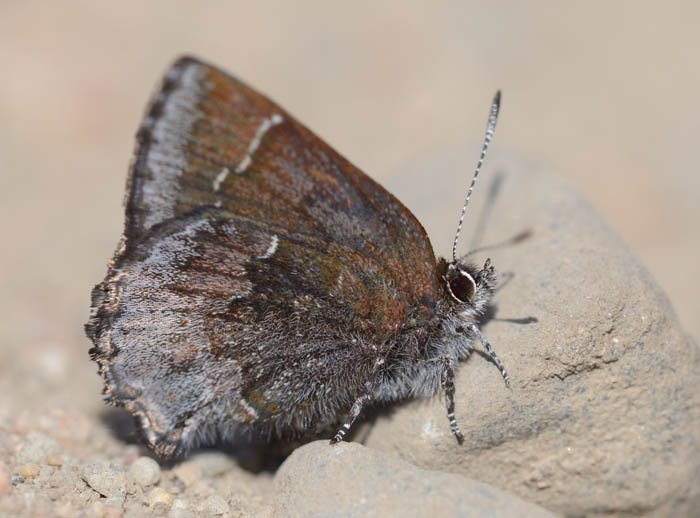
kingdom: Animalia
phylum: Arthropoda
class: Insecta
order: Lepidoptera
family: Lycaenidae
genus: Callophrys
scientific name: Callophrys polios
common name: Hoary Elfin
